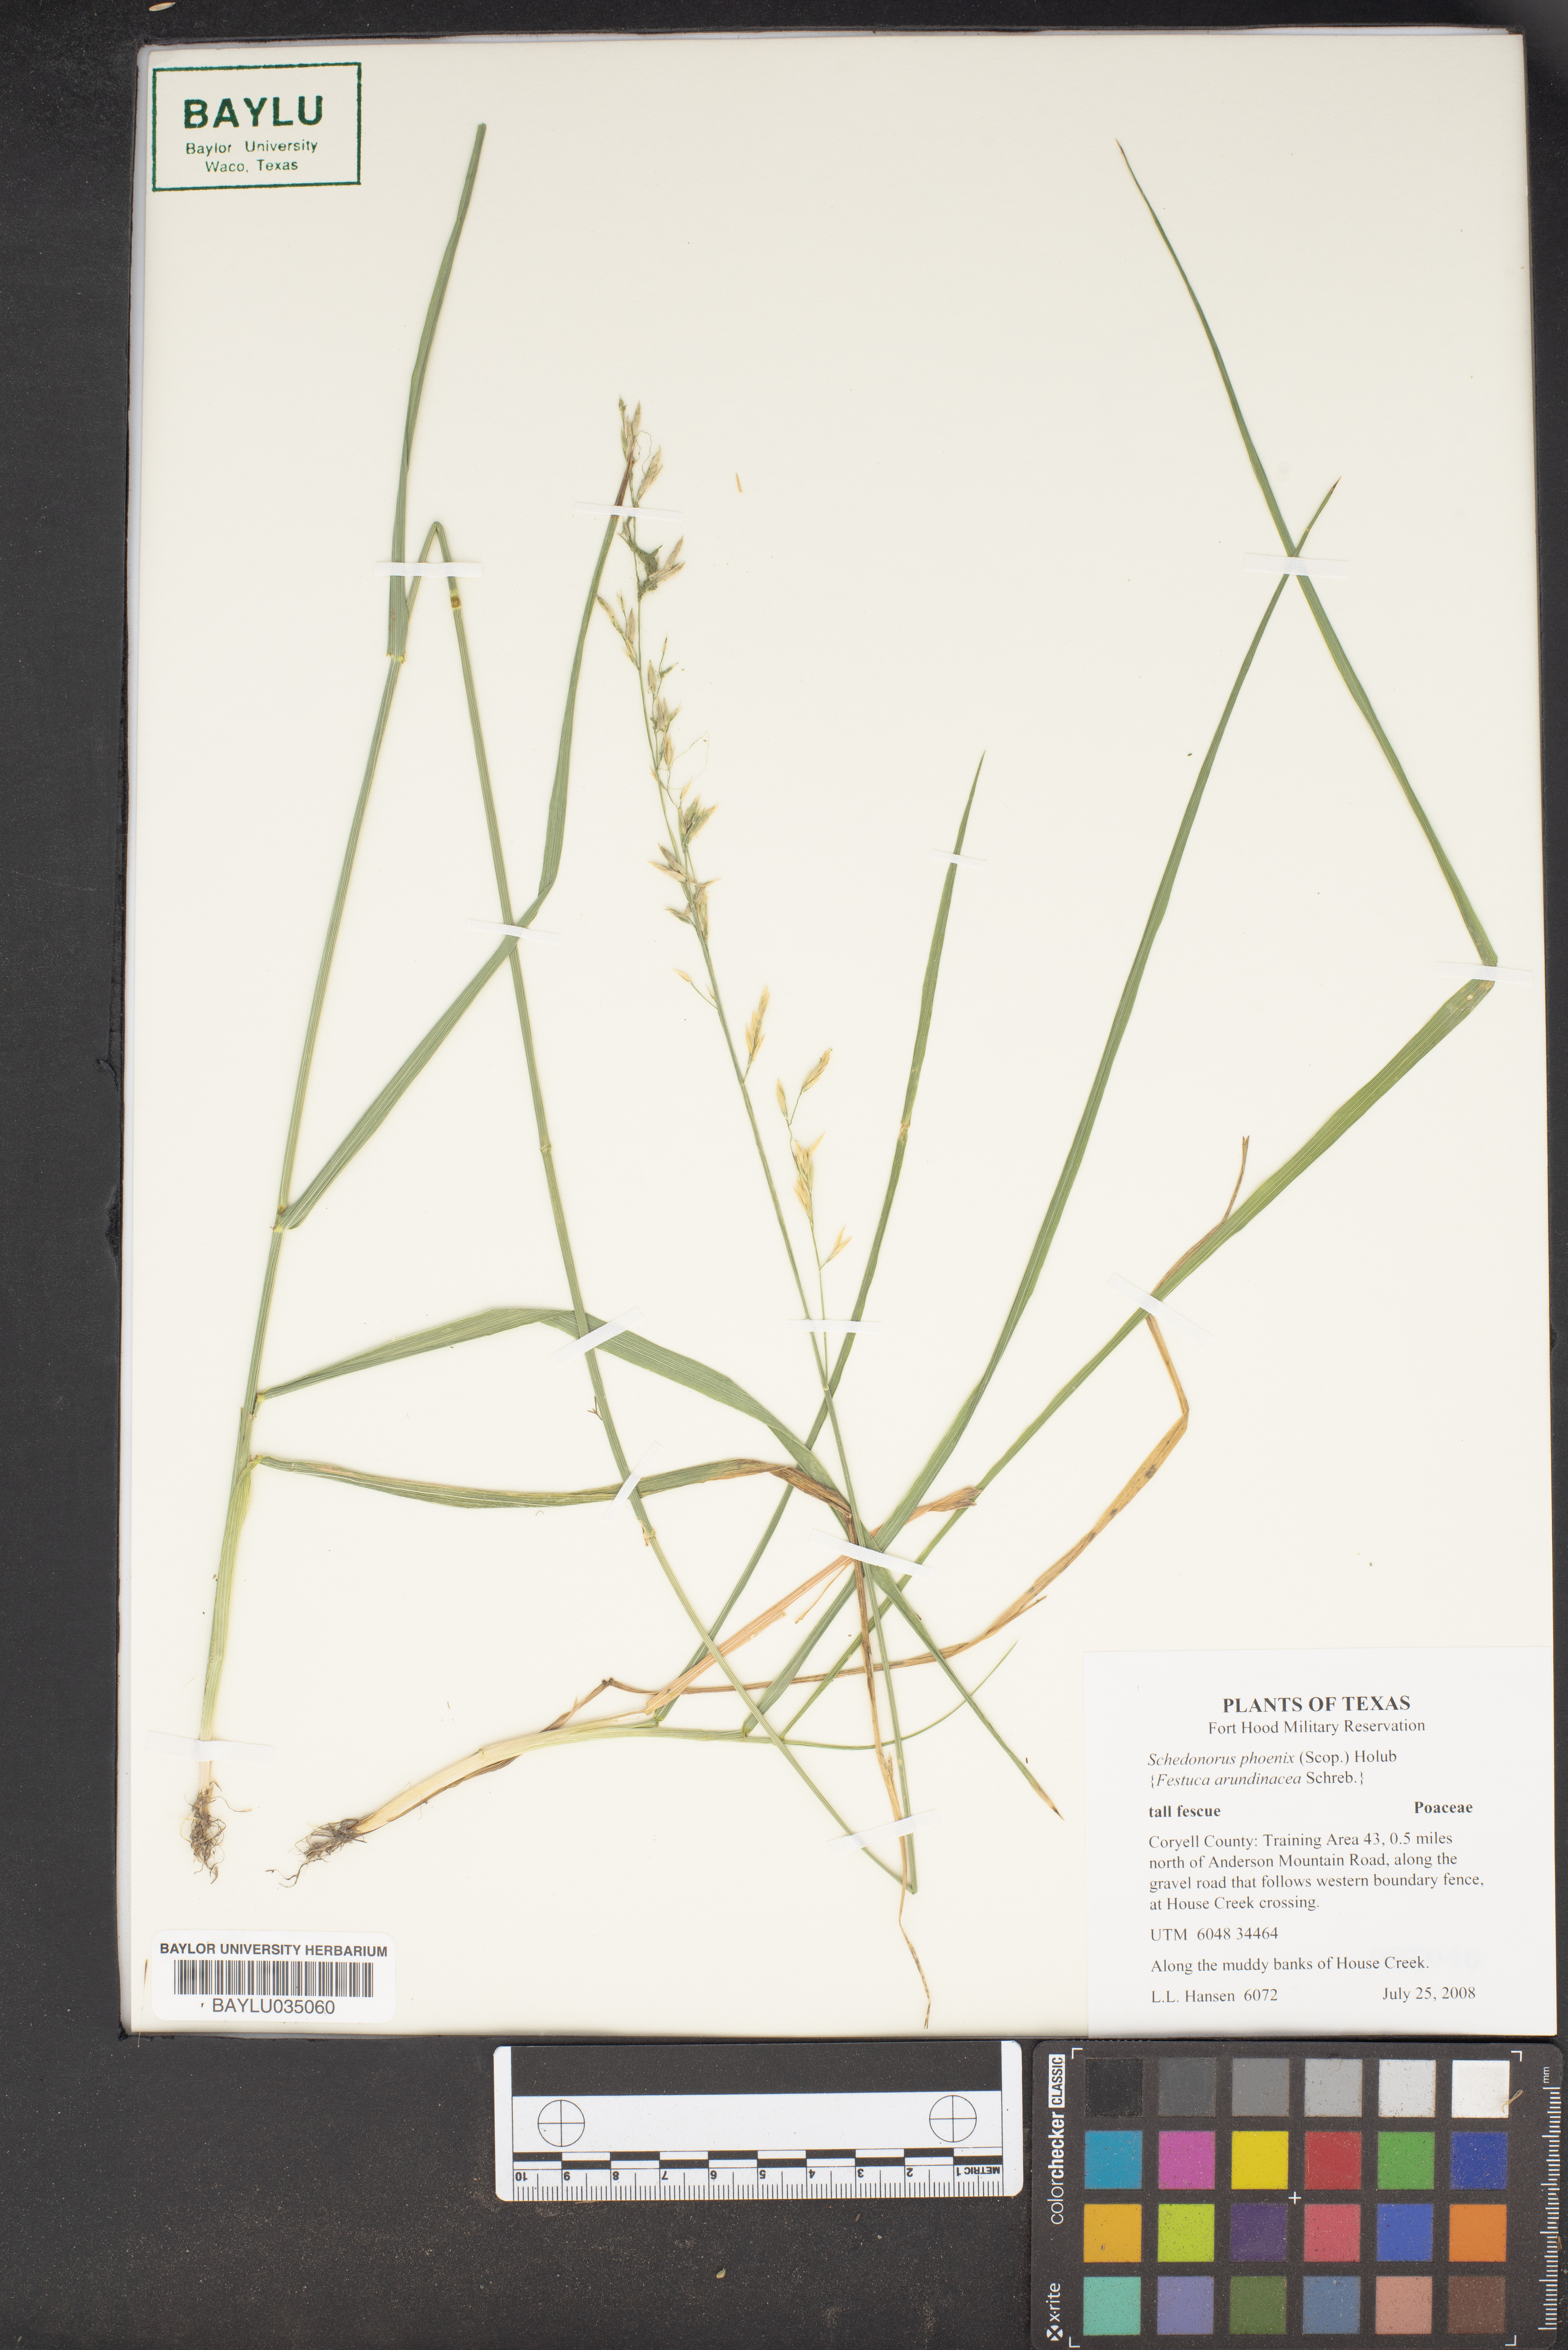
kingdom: Plantae
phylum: Tracheophyta
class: Liliopsida
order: Poales
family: Poaceae
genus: Lolium
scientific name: Lolium arundinaceum
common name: Reed fescue
